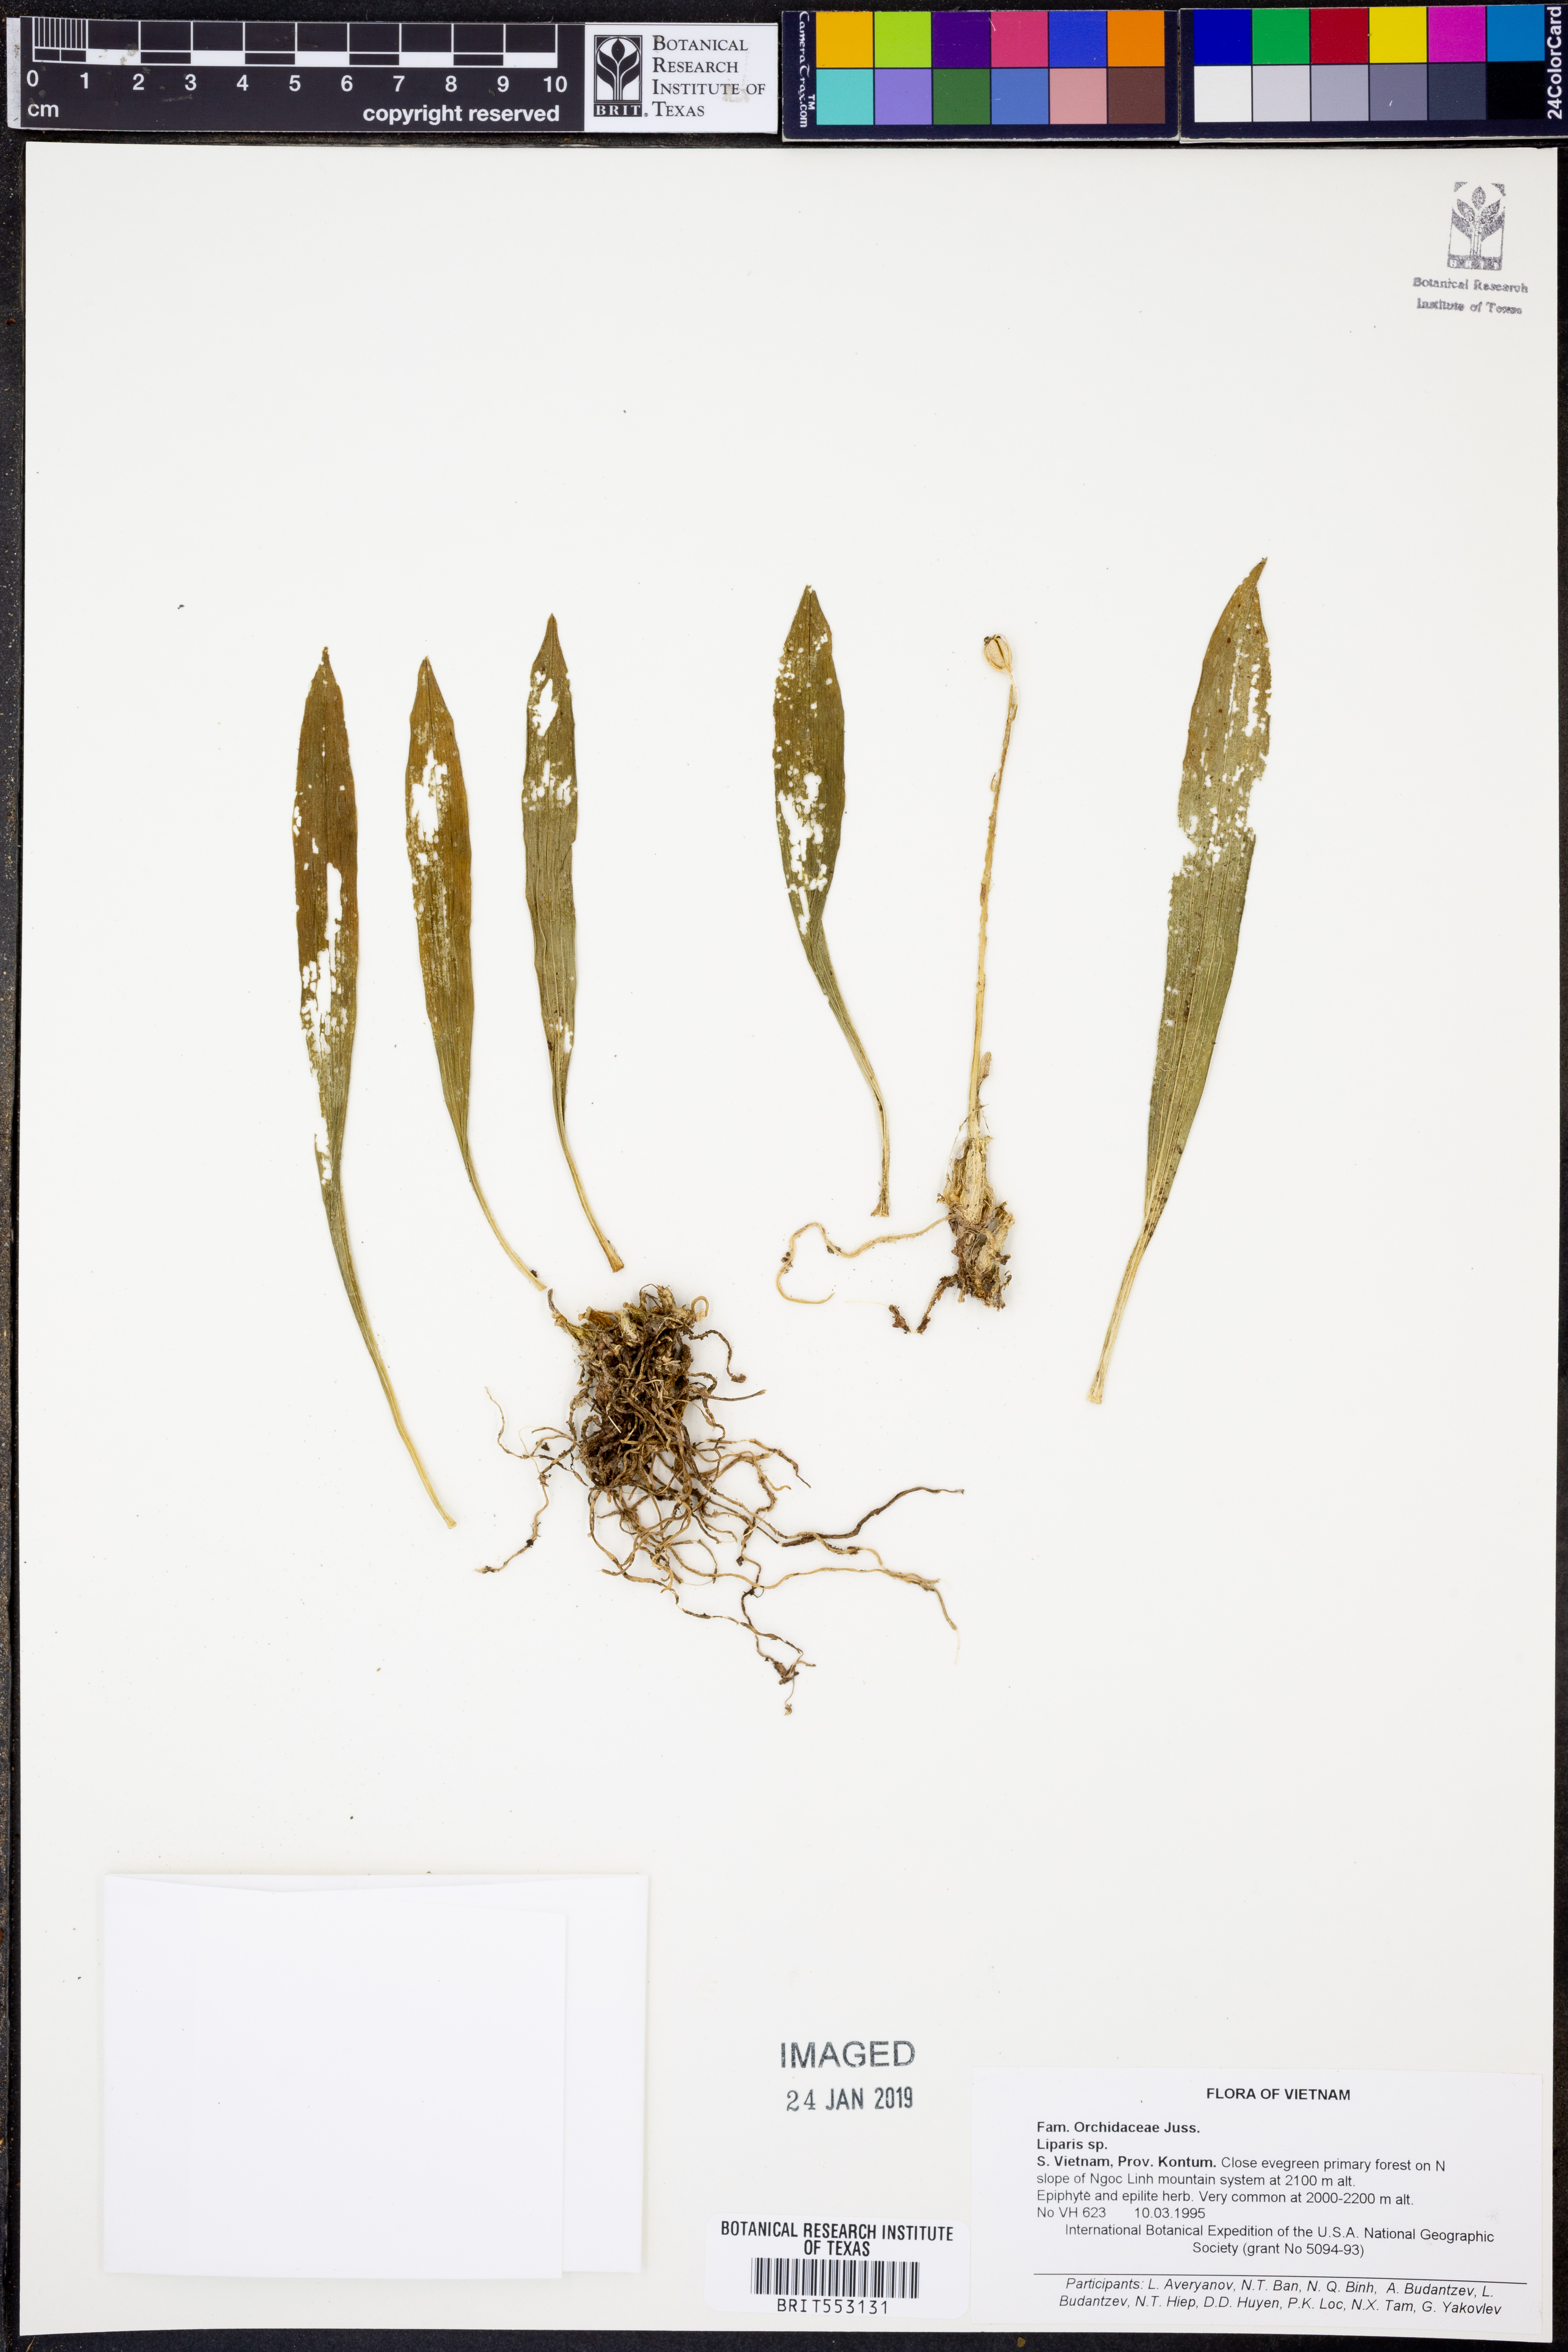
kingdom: Plantae
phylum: Tracheophyta
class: Liliopsida
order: Asparagales
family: Orchidaceae
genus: Liparis
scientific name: Liparis
